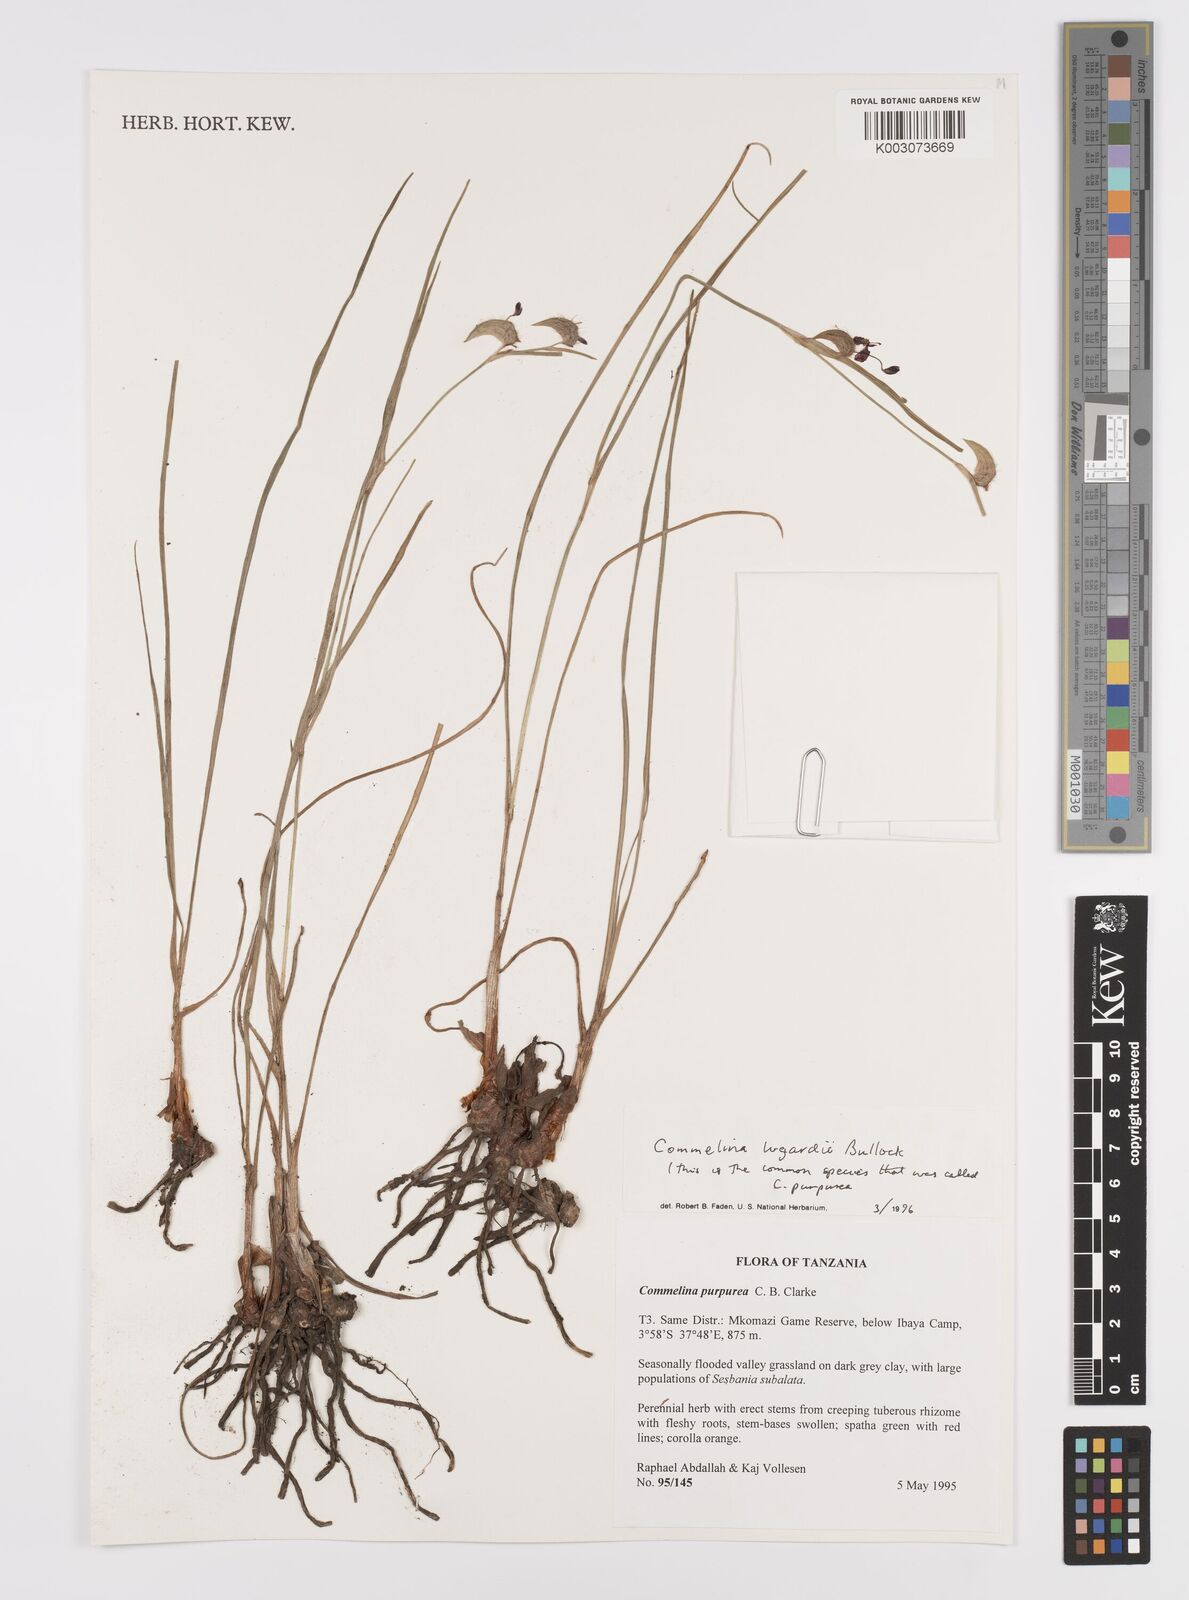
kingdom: Plantae
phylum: Tracheophyta
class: Liliopsida
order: Commelinales
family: Commelinaceae
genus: Commelina
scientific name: Commelina purpurea
